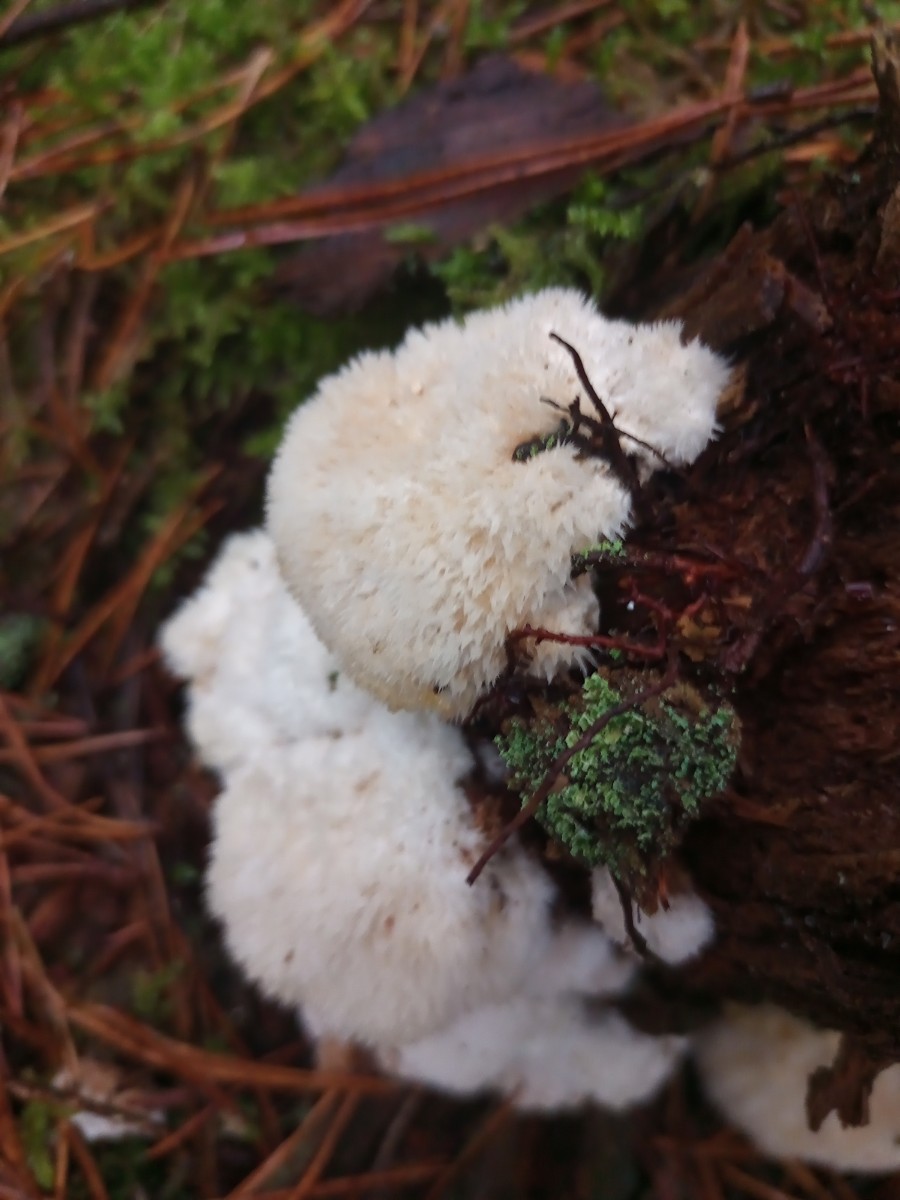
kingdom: Fungi
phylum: Basidiomycota
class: Agaricomycetes
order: Polyporales
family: Dacryobolaceae
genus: Postia
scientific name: Postia ptychogaster
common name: støvende kødporesvamp
